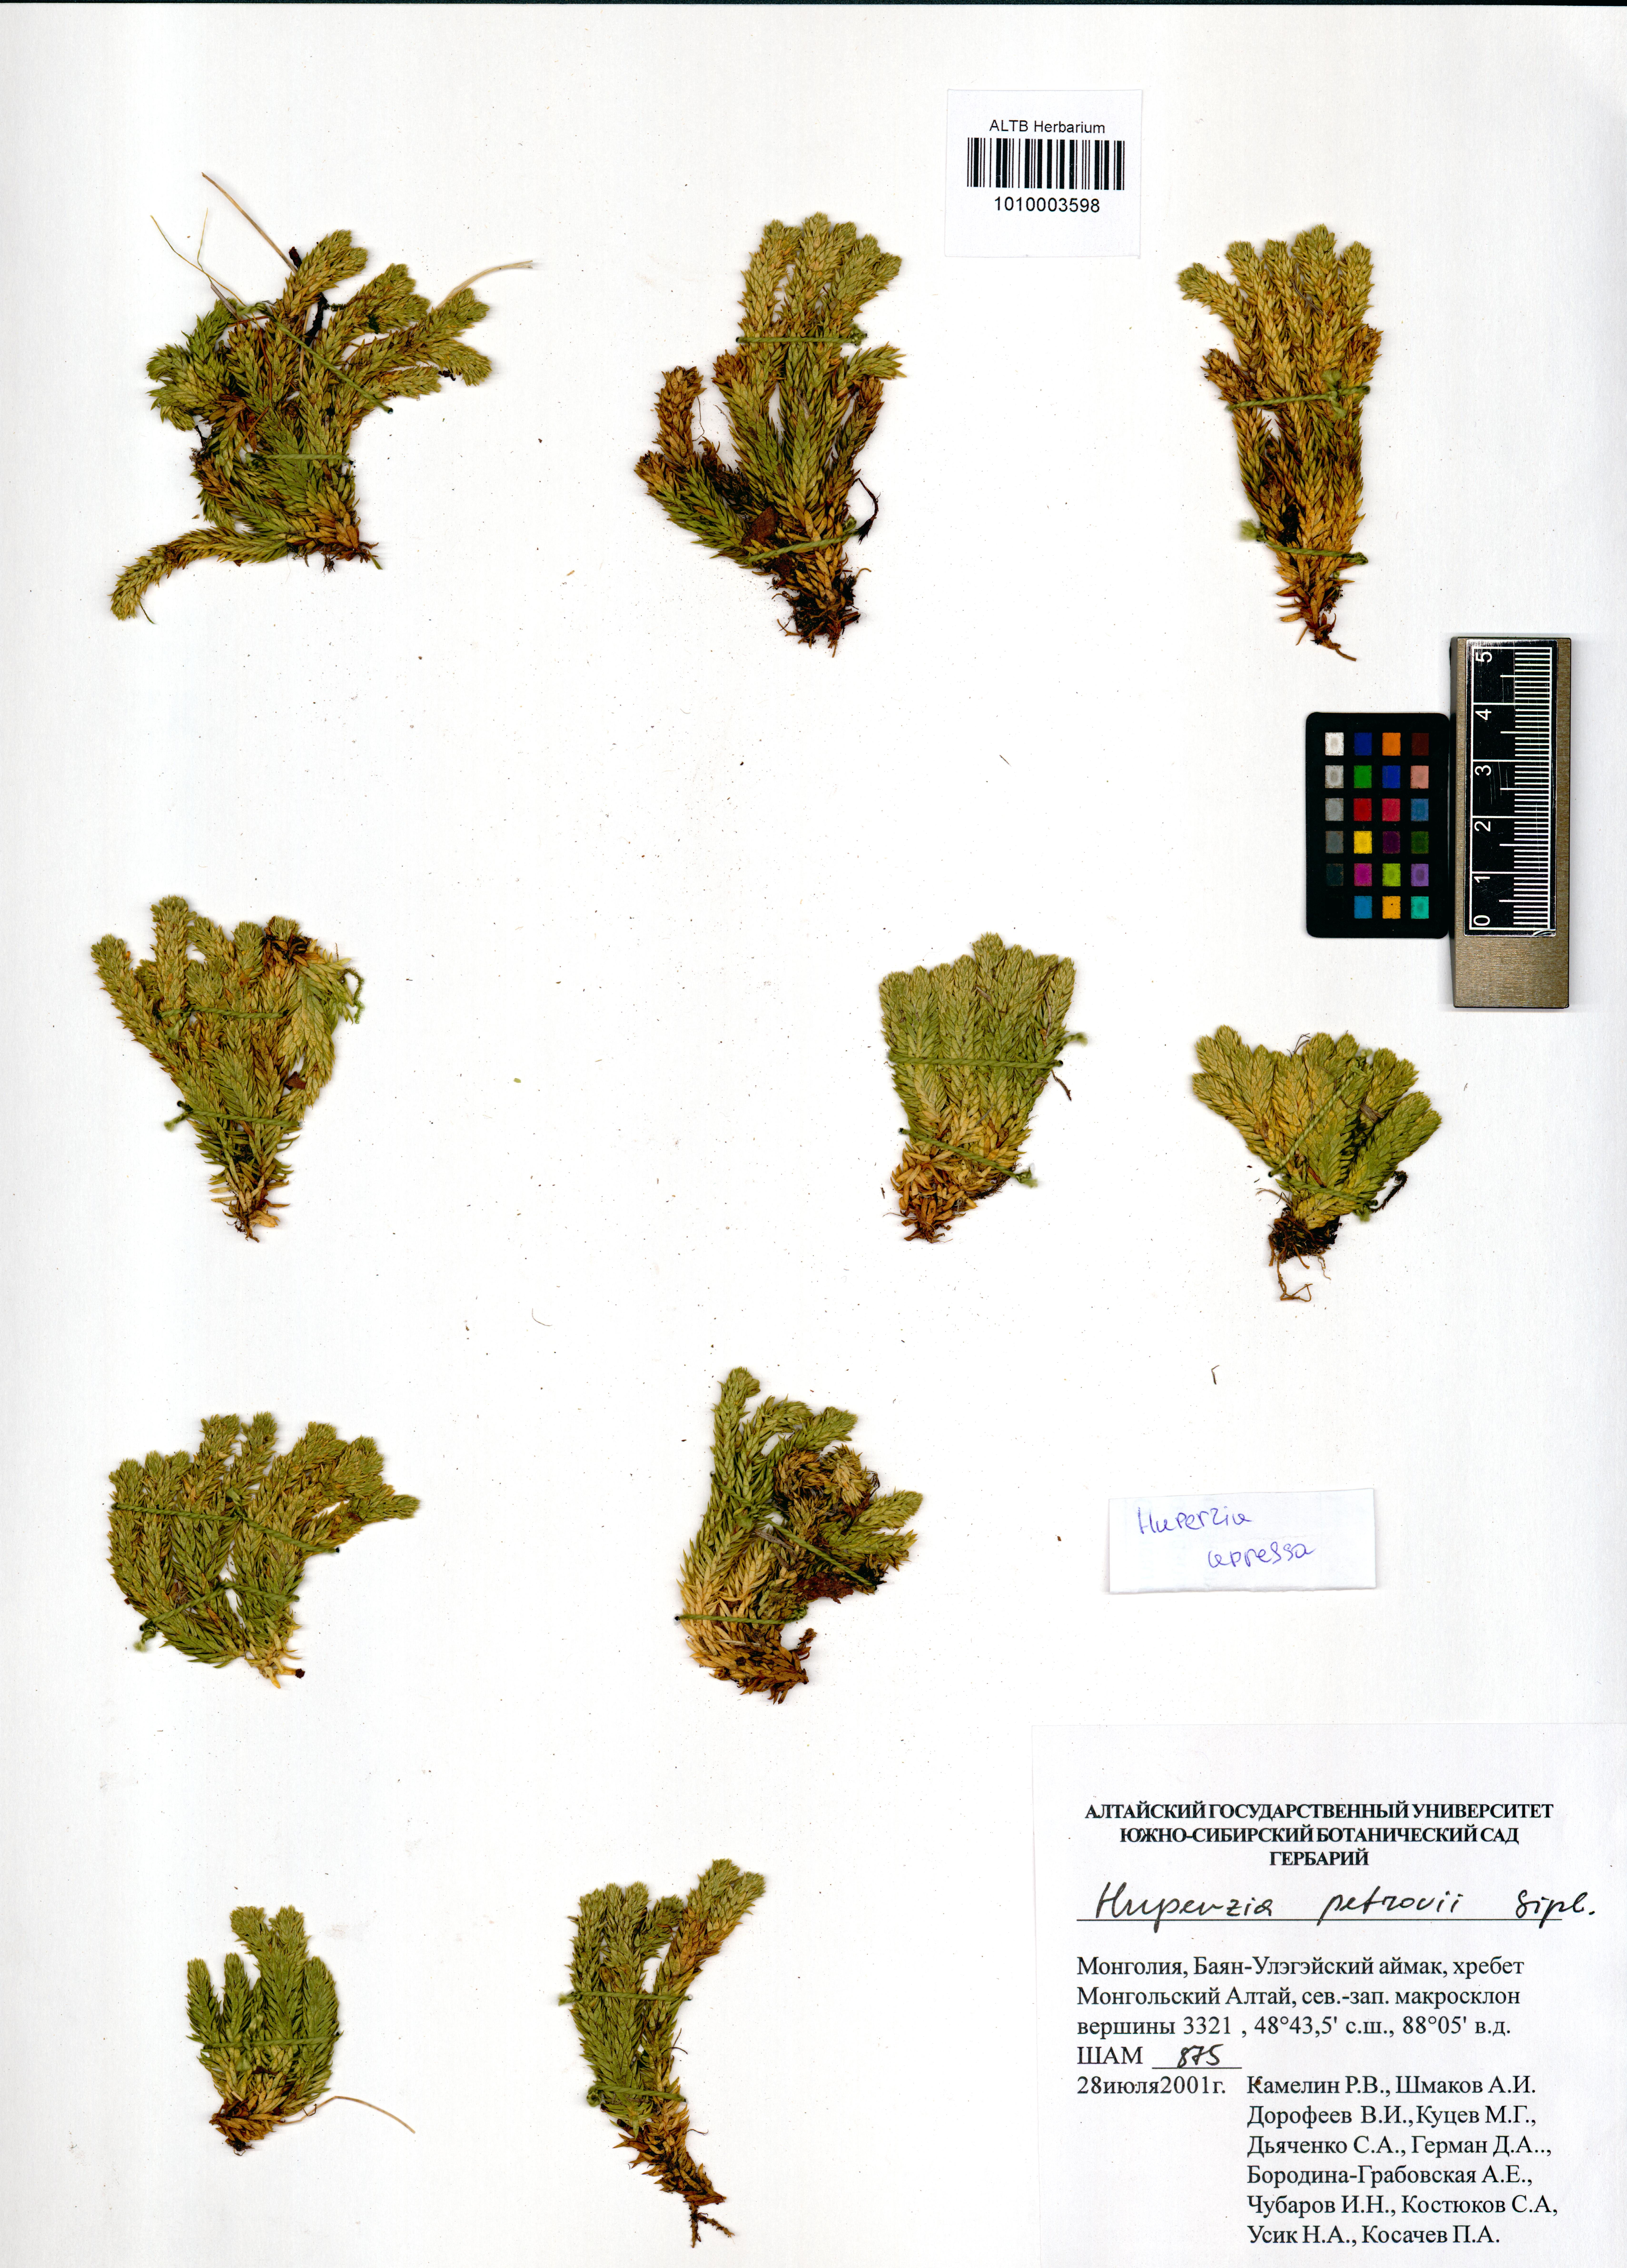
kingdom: Plantae
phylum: Tracheophyta
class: Lycopodiopsida
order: Lycopodiales
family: Lycopodiaceae
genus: Huperzia
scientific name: Huperzia selago
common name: Northern firmoss
